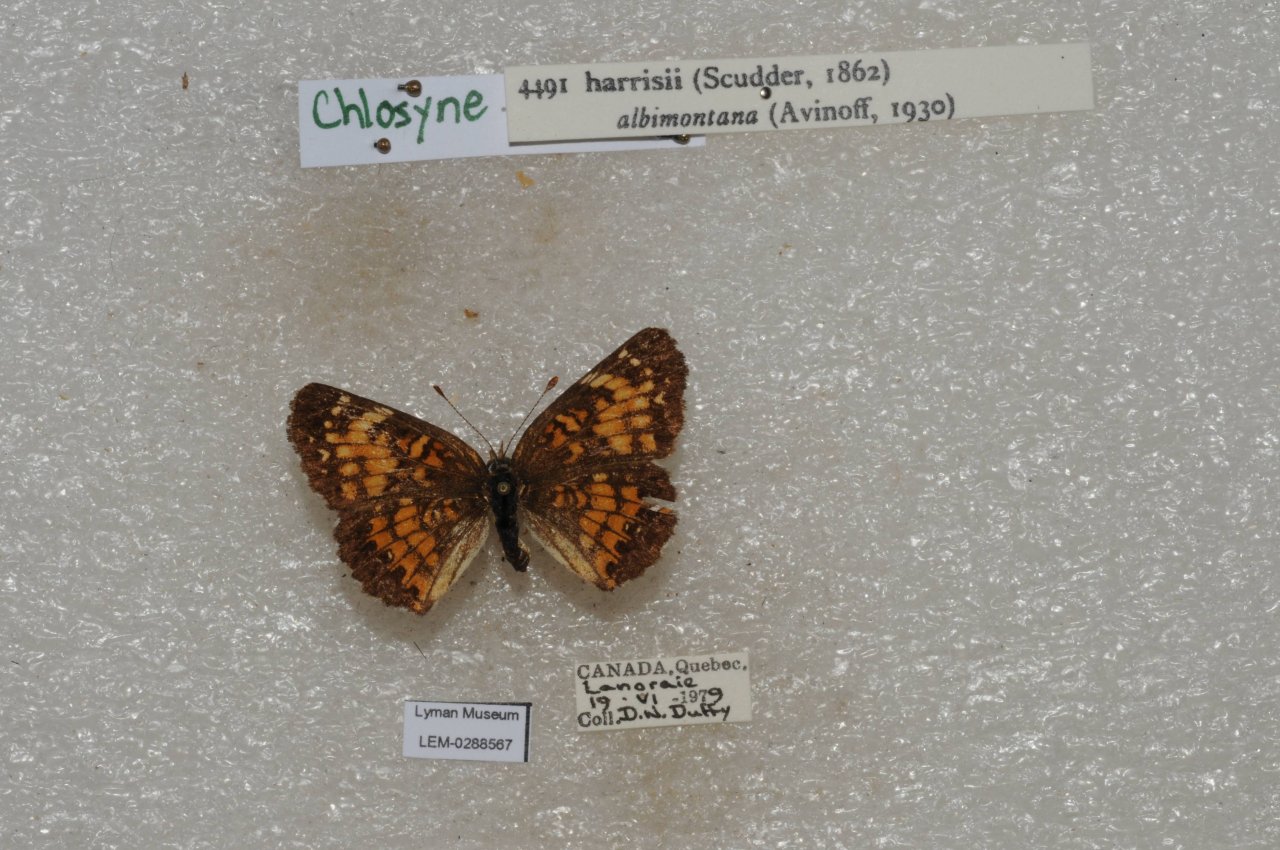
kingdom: Animalia
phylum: Arthropoda
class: Insecta
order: Lepidoptera
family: Nymphalidae
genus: Chlosyne
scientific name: Chlosyne harrisii
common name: Harris's Checkerspot
